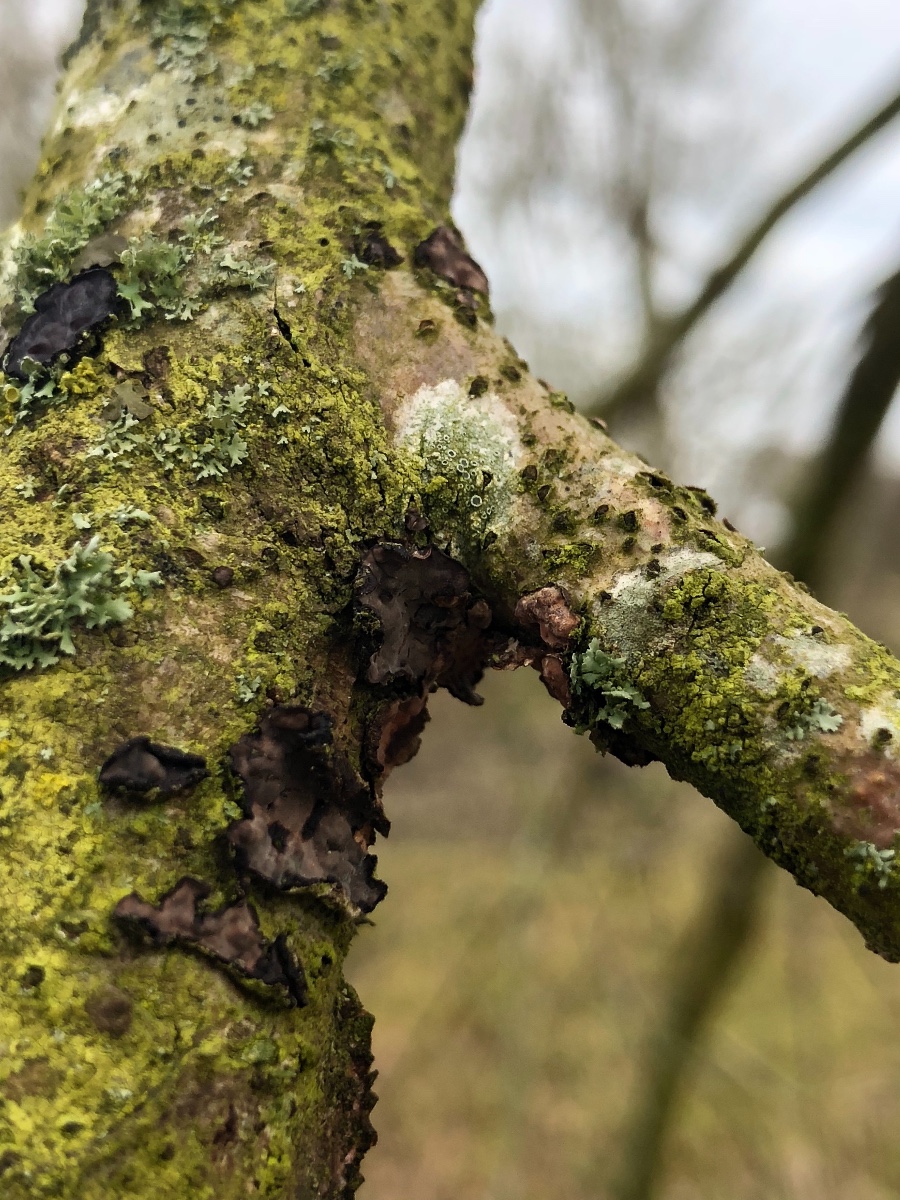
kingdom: Fungi
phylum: Basidiomycota
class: Agaricomycetes
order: Russulales
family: Peniophoraceae
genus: Peniophora
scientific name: Peniophora quercina
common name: ege-voksskind
